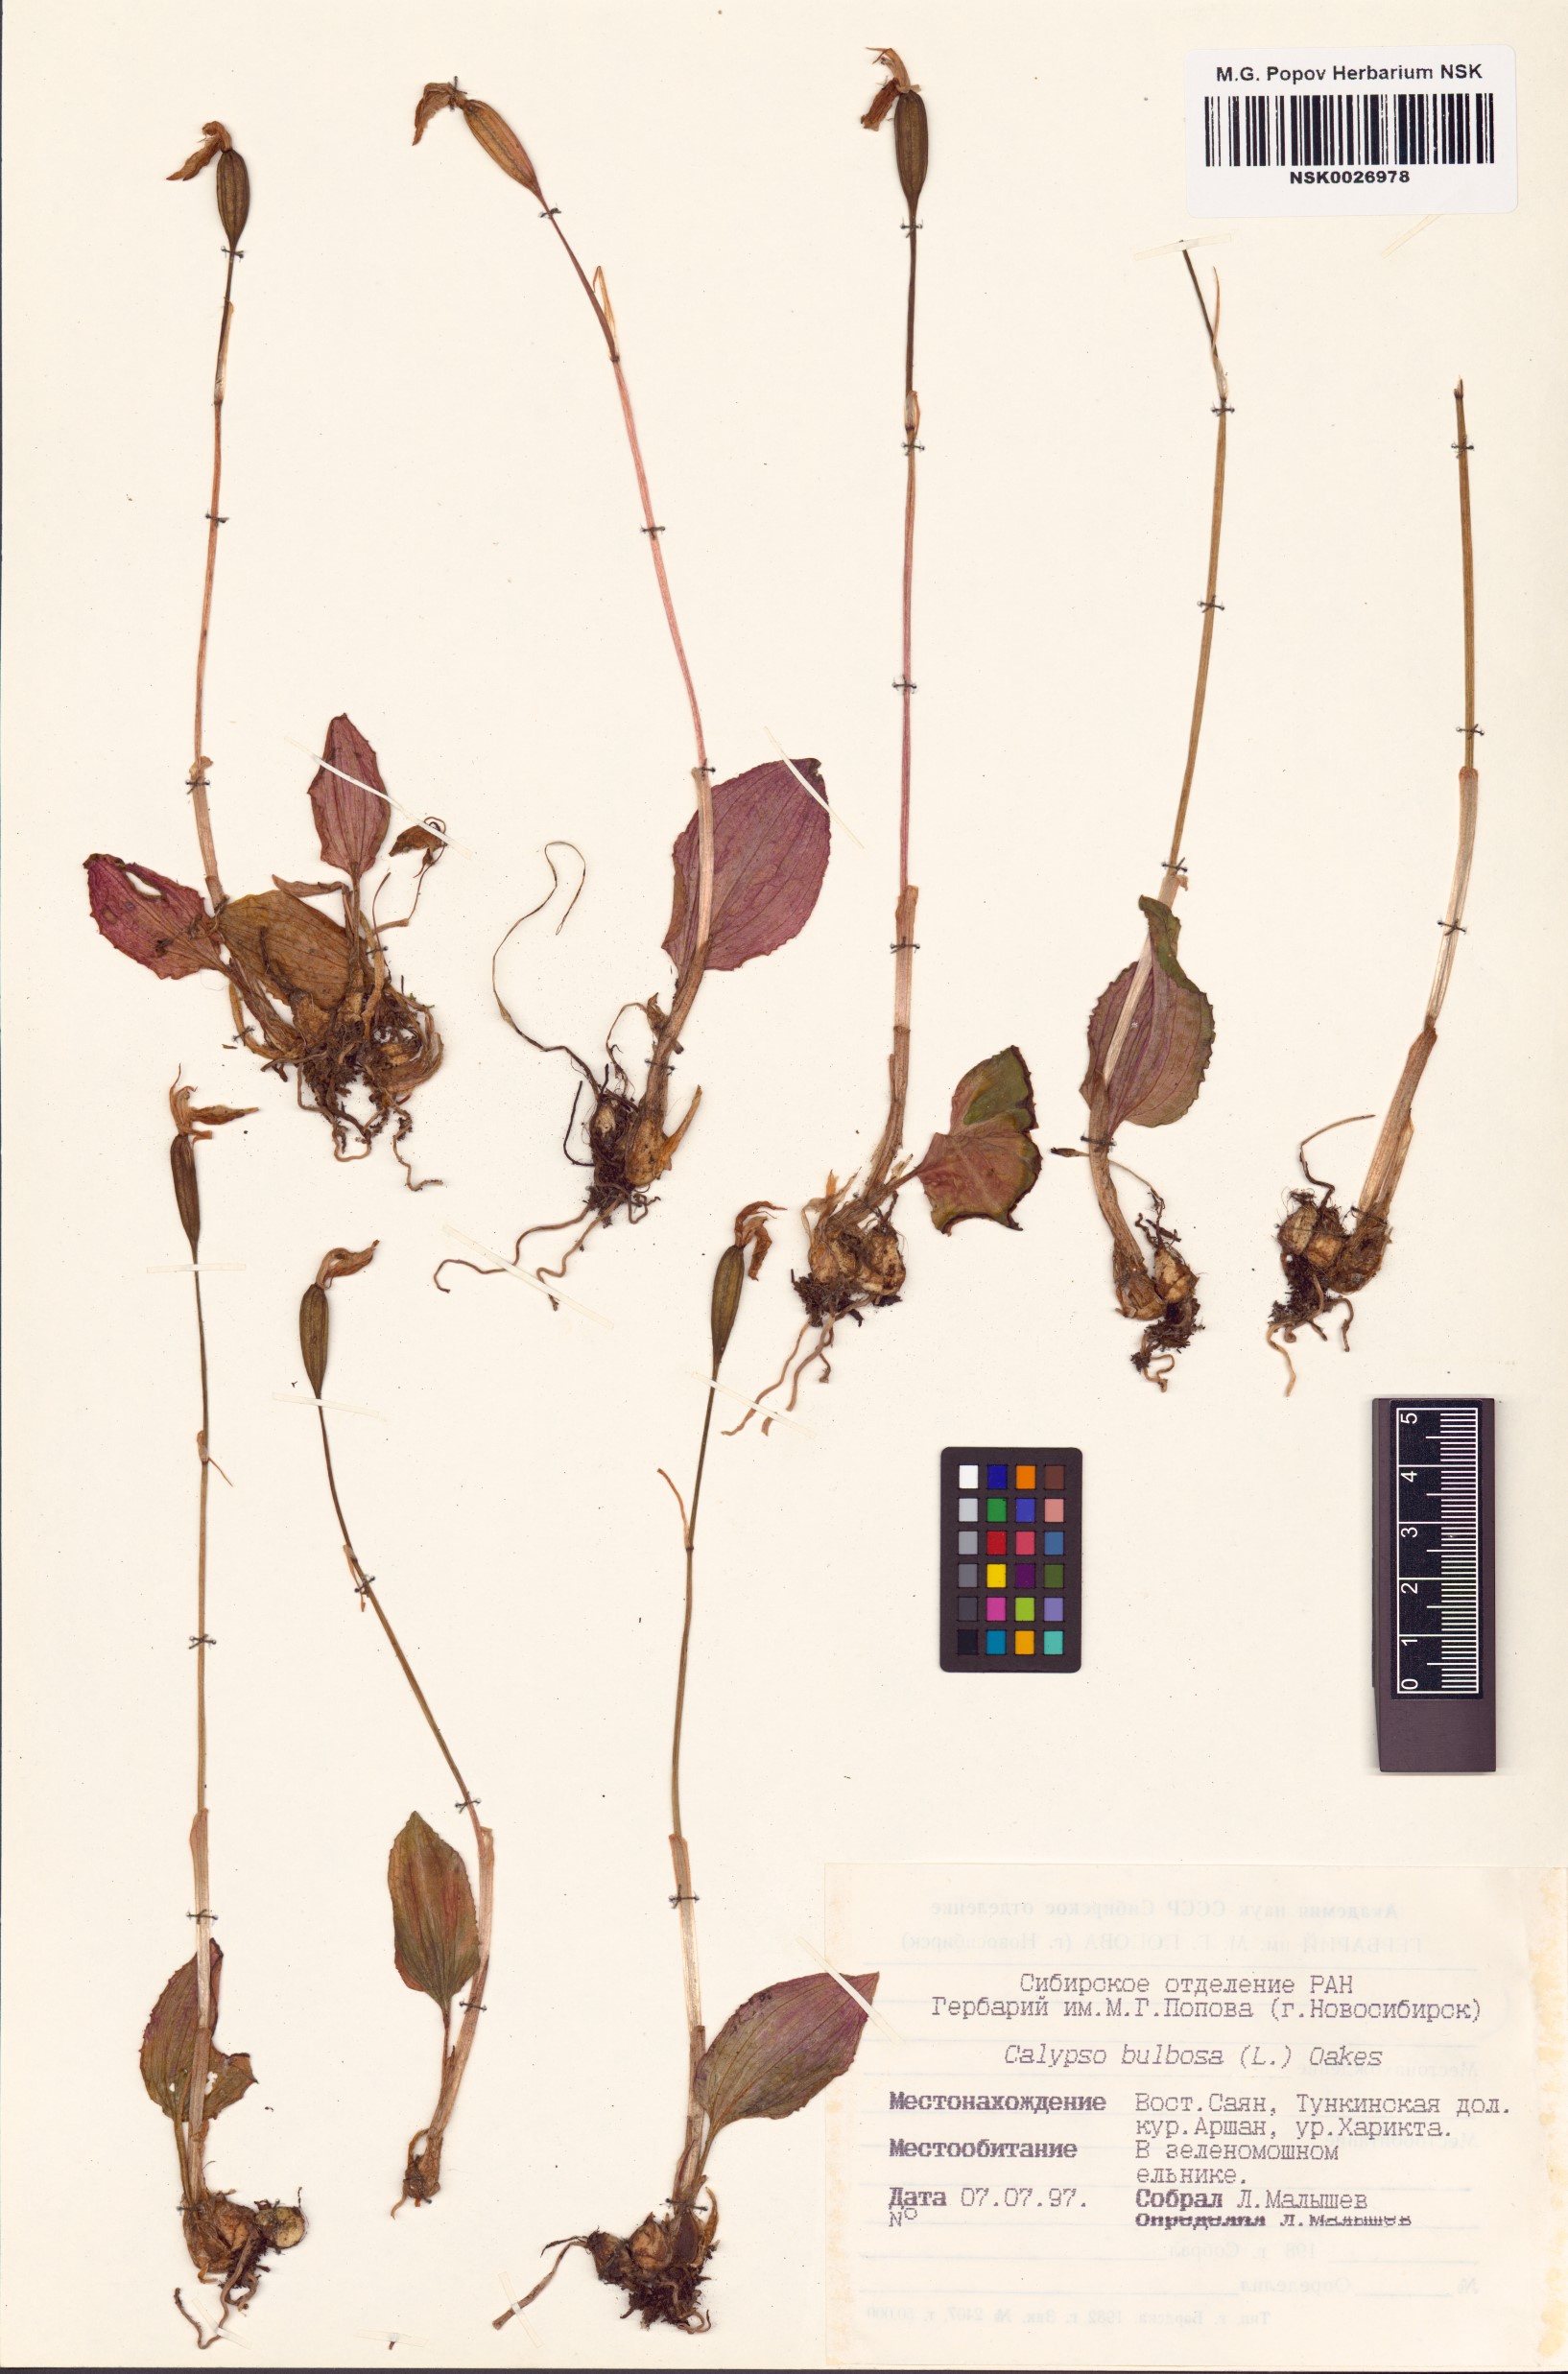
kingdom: Plantae
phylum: Tracheophyta
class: Liliopsida
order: Asparagales
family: Orchidaceae
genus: Calypso
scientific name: Calypso bulbosa
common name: Calypso
